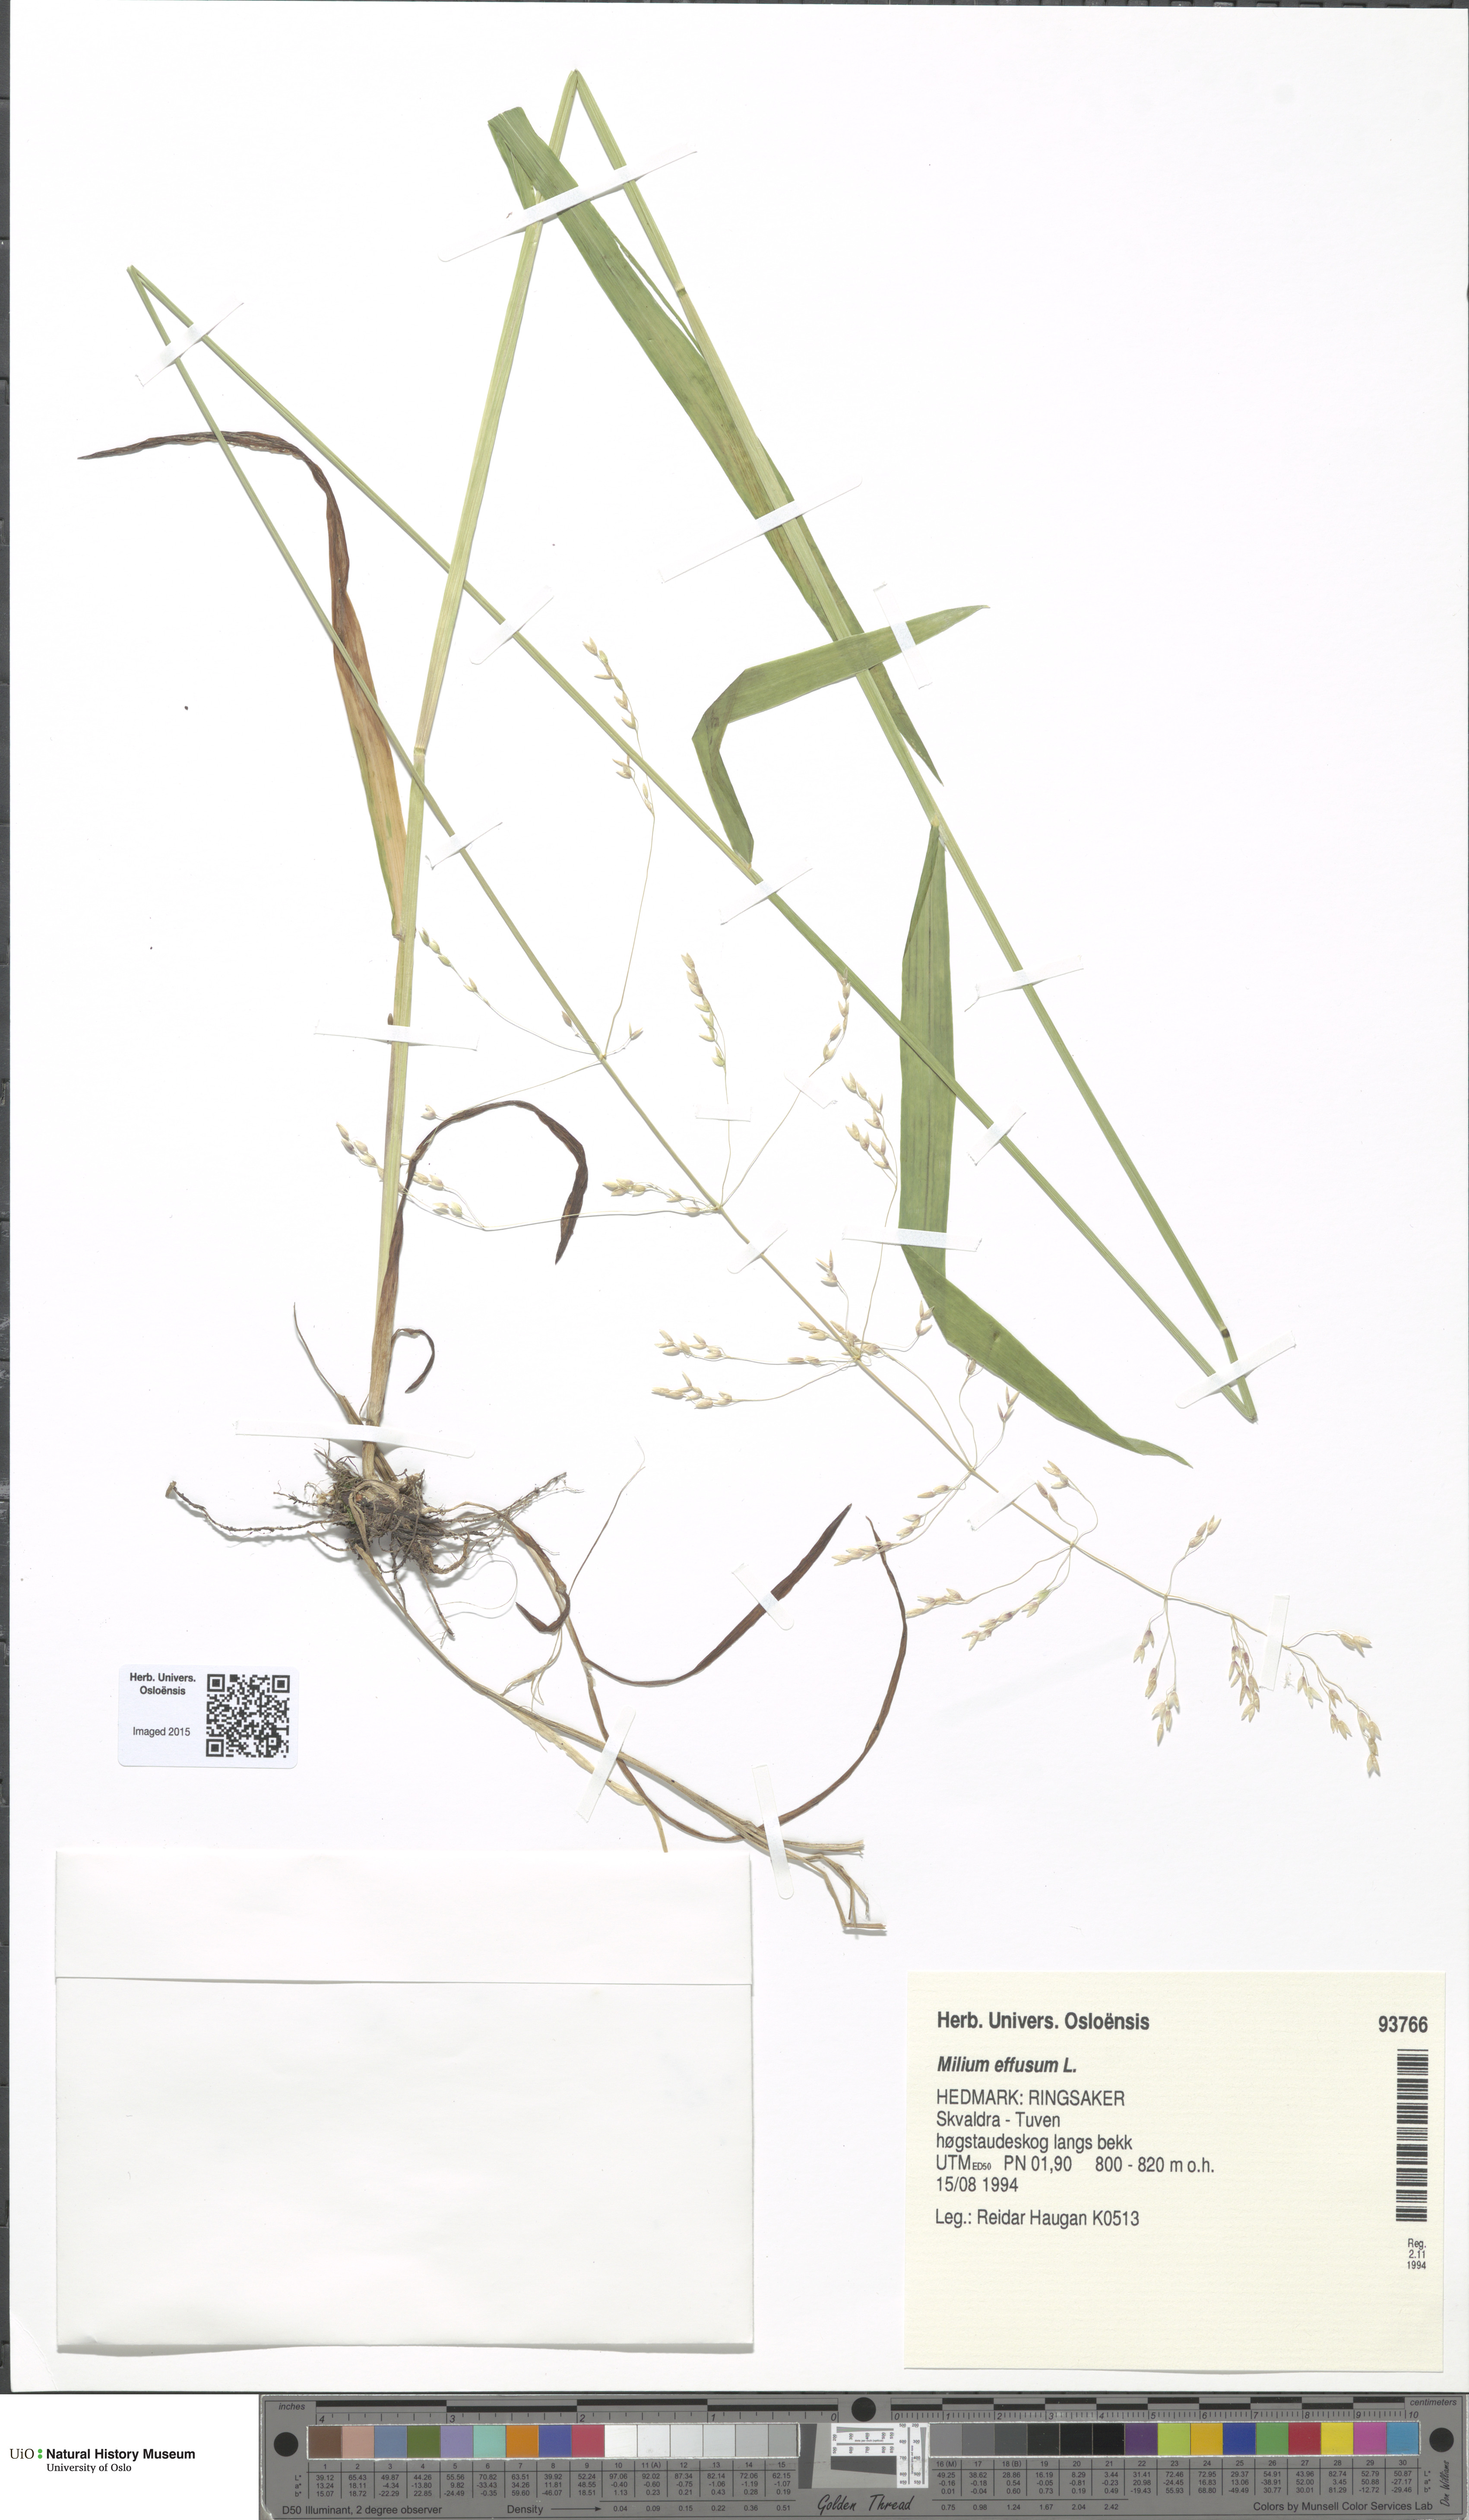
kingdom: Plantae
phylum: Tracheophyta
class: Liliopsida
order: Poales
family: Poaceae
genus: Milium
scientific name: Milium effusum
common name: Wood millet
